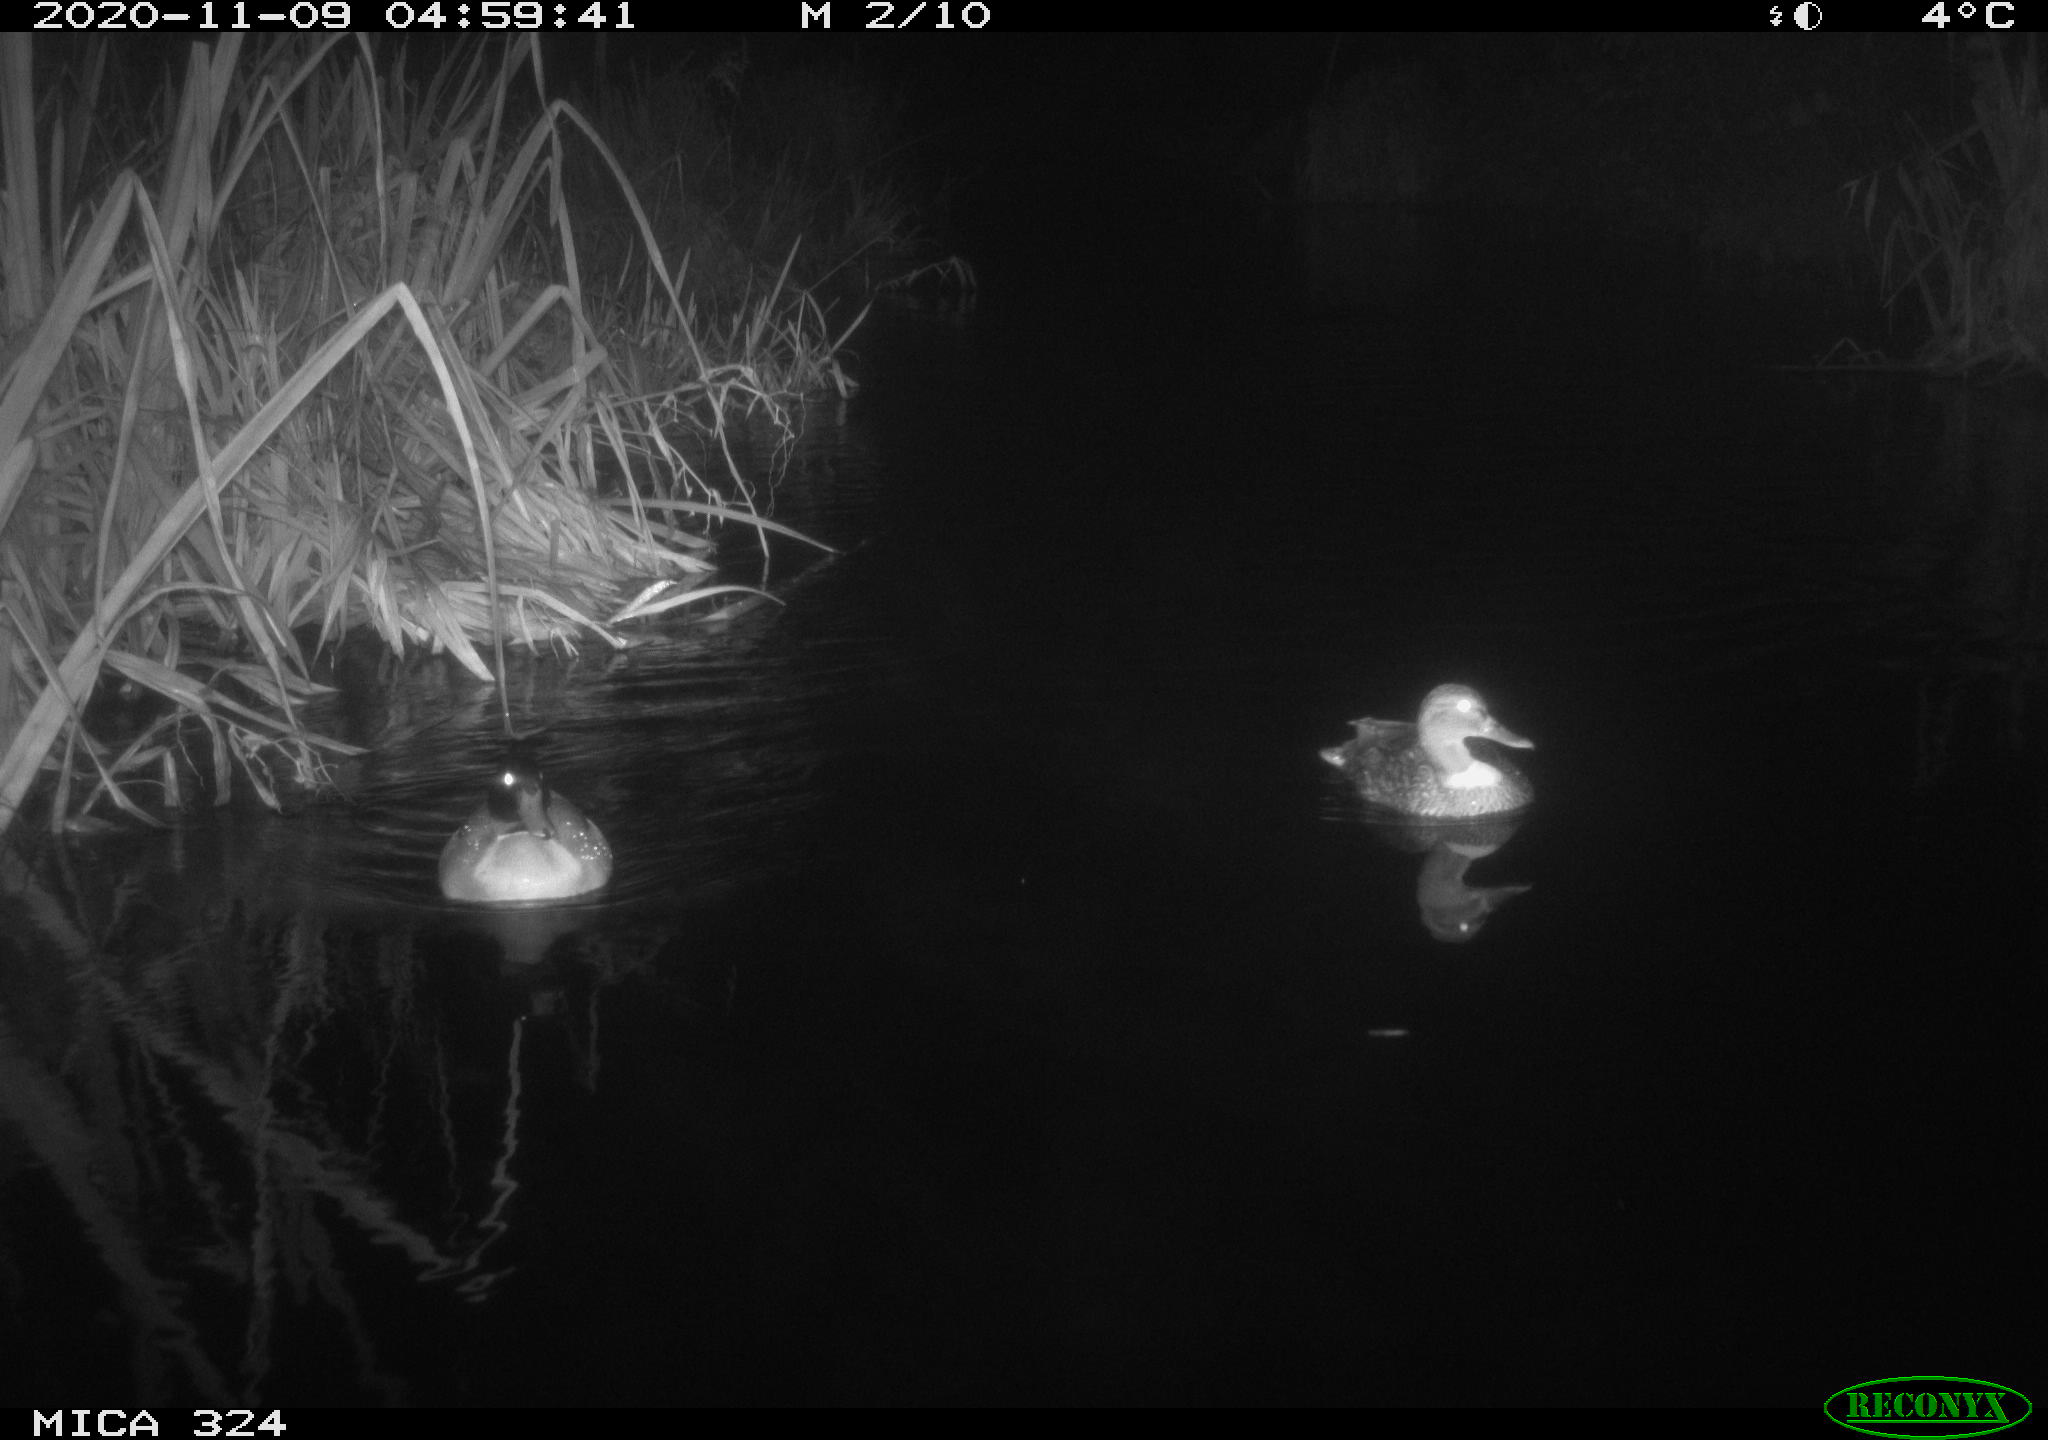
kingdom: Animalia
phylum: Chordata
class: Aves
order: Anseriformes
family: Anatidae
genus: Anas
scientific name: Anas platyrhynchos
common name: Mallard
